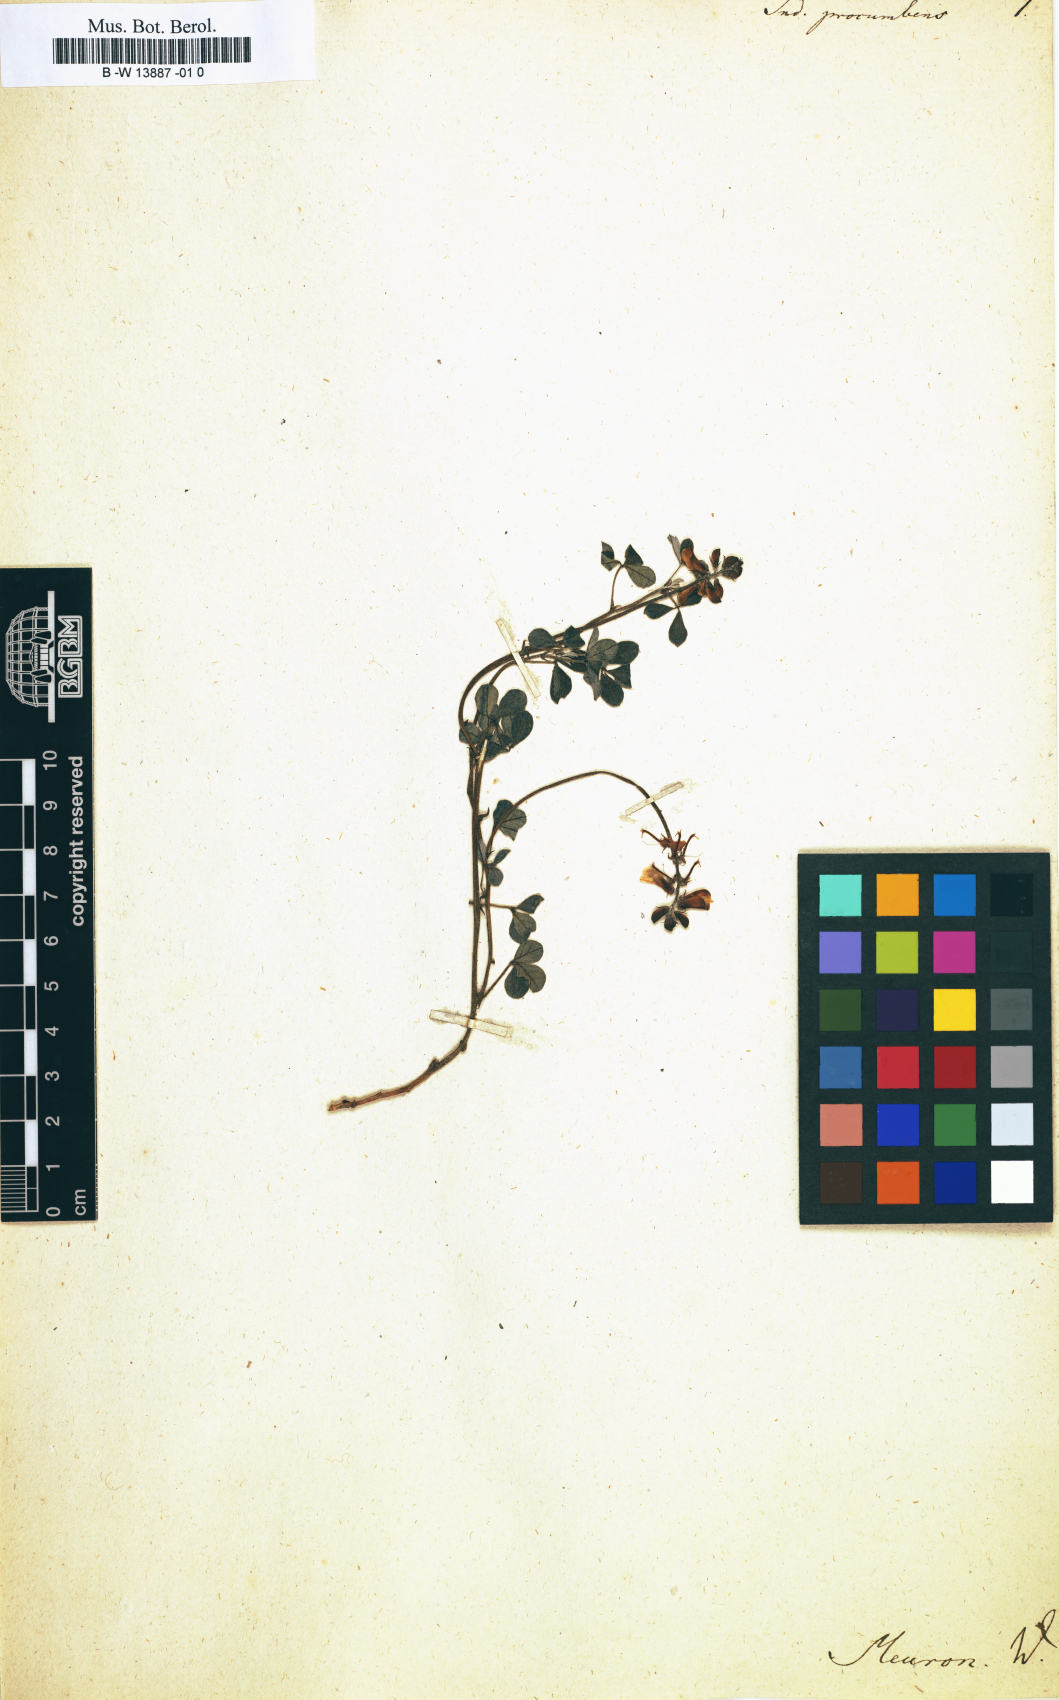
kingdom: Plantae
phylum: Tracheophyta
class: Magnoliopsida
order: Fabales
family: Fabaceae
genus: Indigofera
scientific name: Indigofera procumbens
